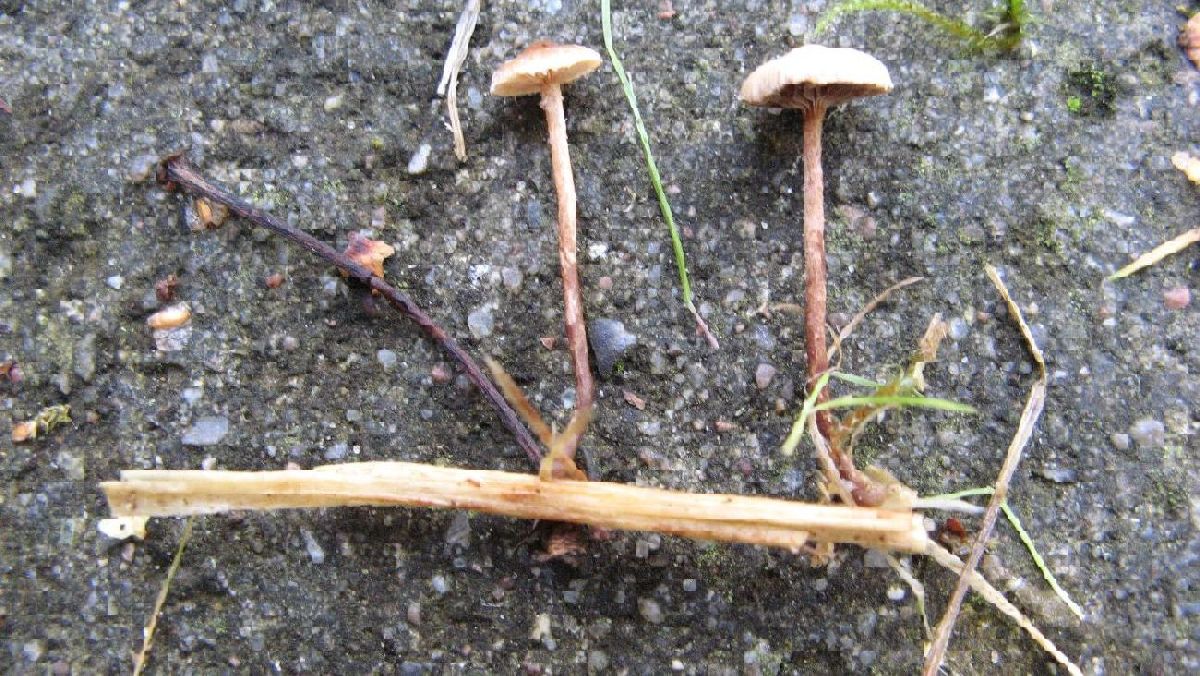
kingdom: Fungi
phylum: Basidiomycota
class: Agaricomycetes
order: Agaricales
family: Strophariaceae
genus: Deconica
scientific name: Deconica crobula
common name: træflis-stråhat
